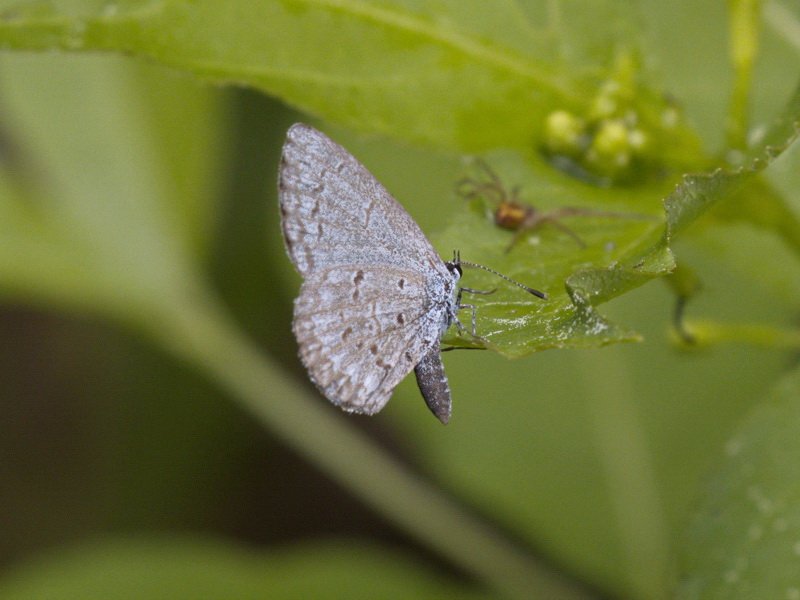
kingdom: Animalia
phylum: Arthropoda
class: Insecta
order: Lepidoptera
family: Lycaenidae
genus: Celastrina
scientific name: Celastrina lucia
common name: Northern Spring Azure
